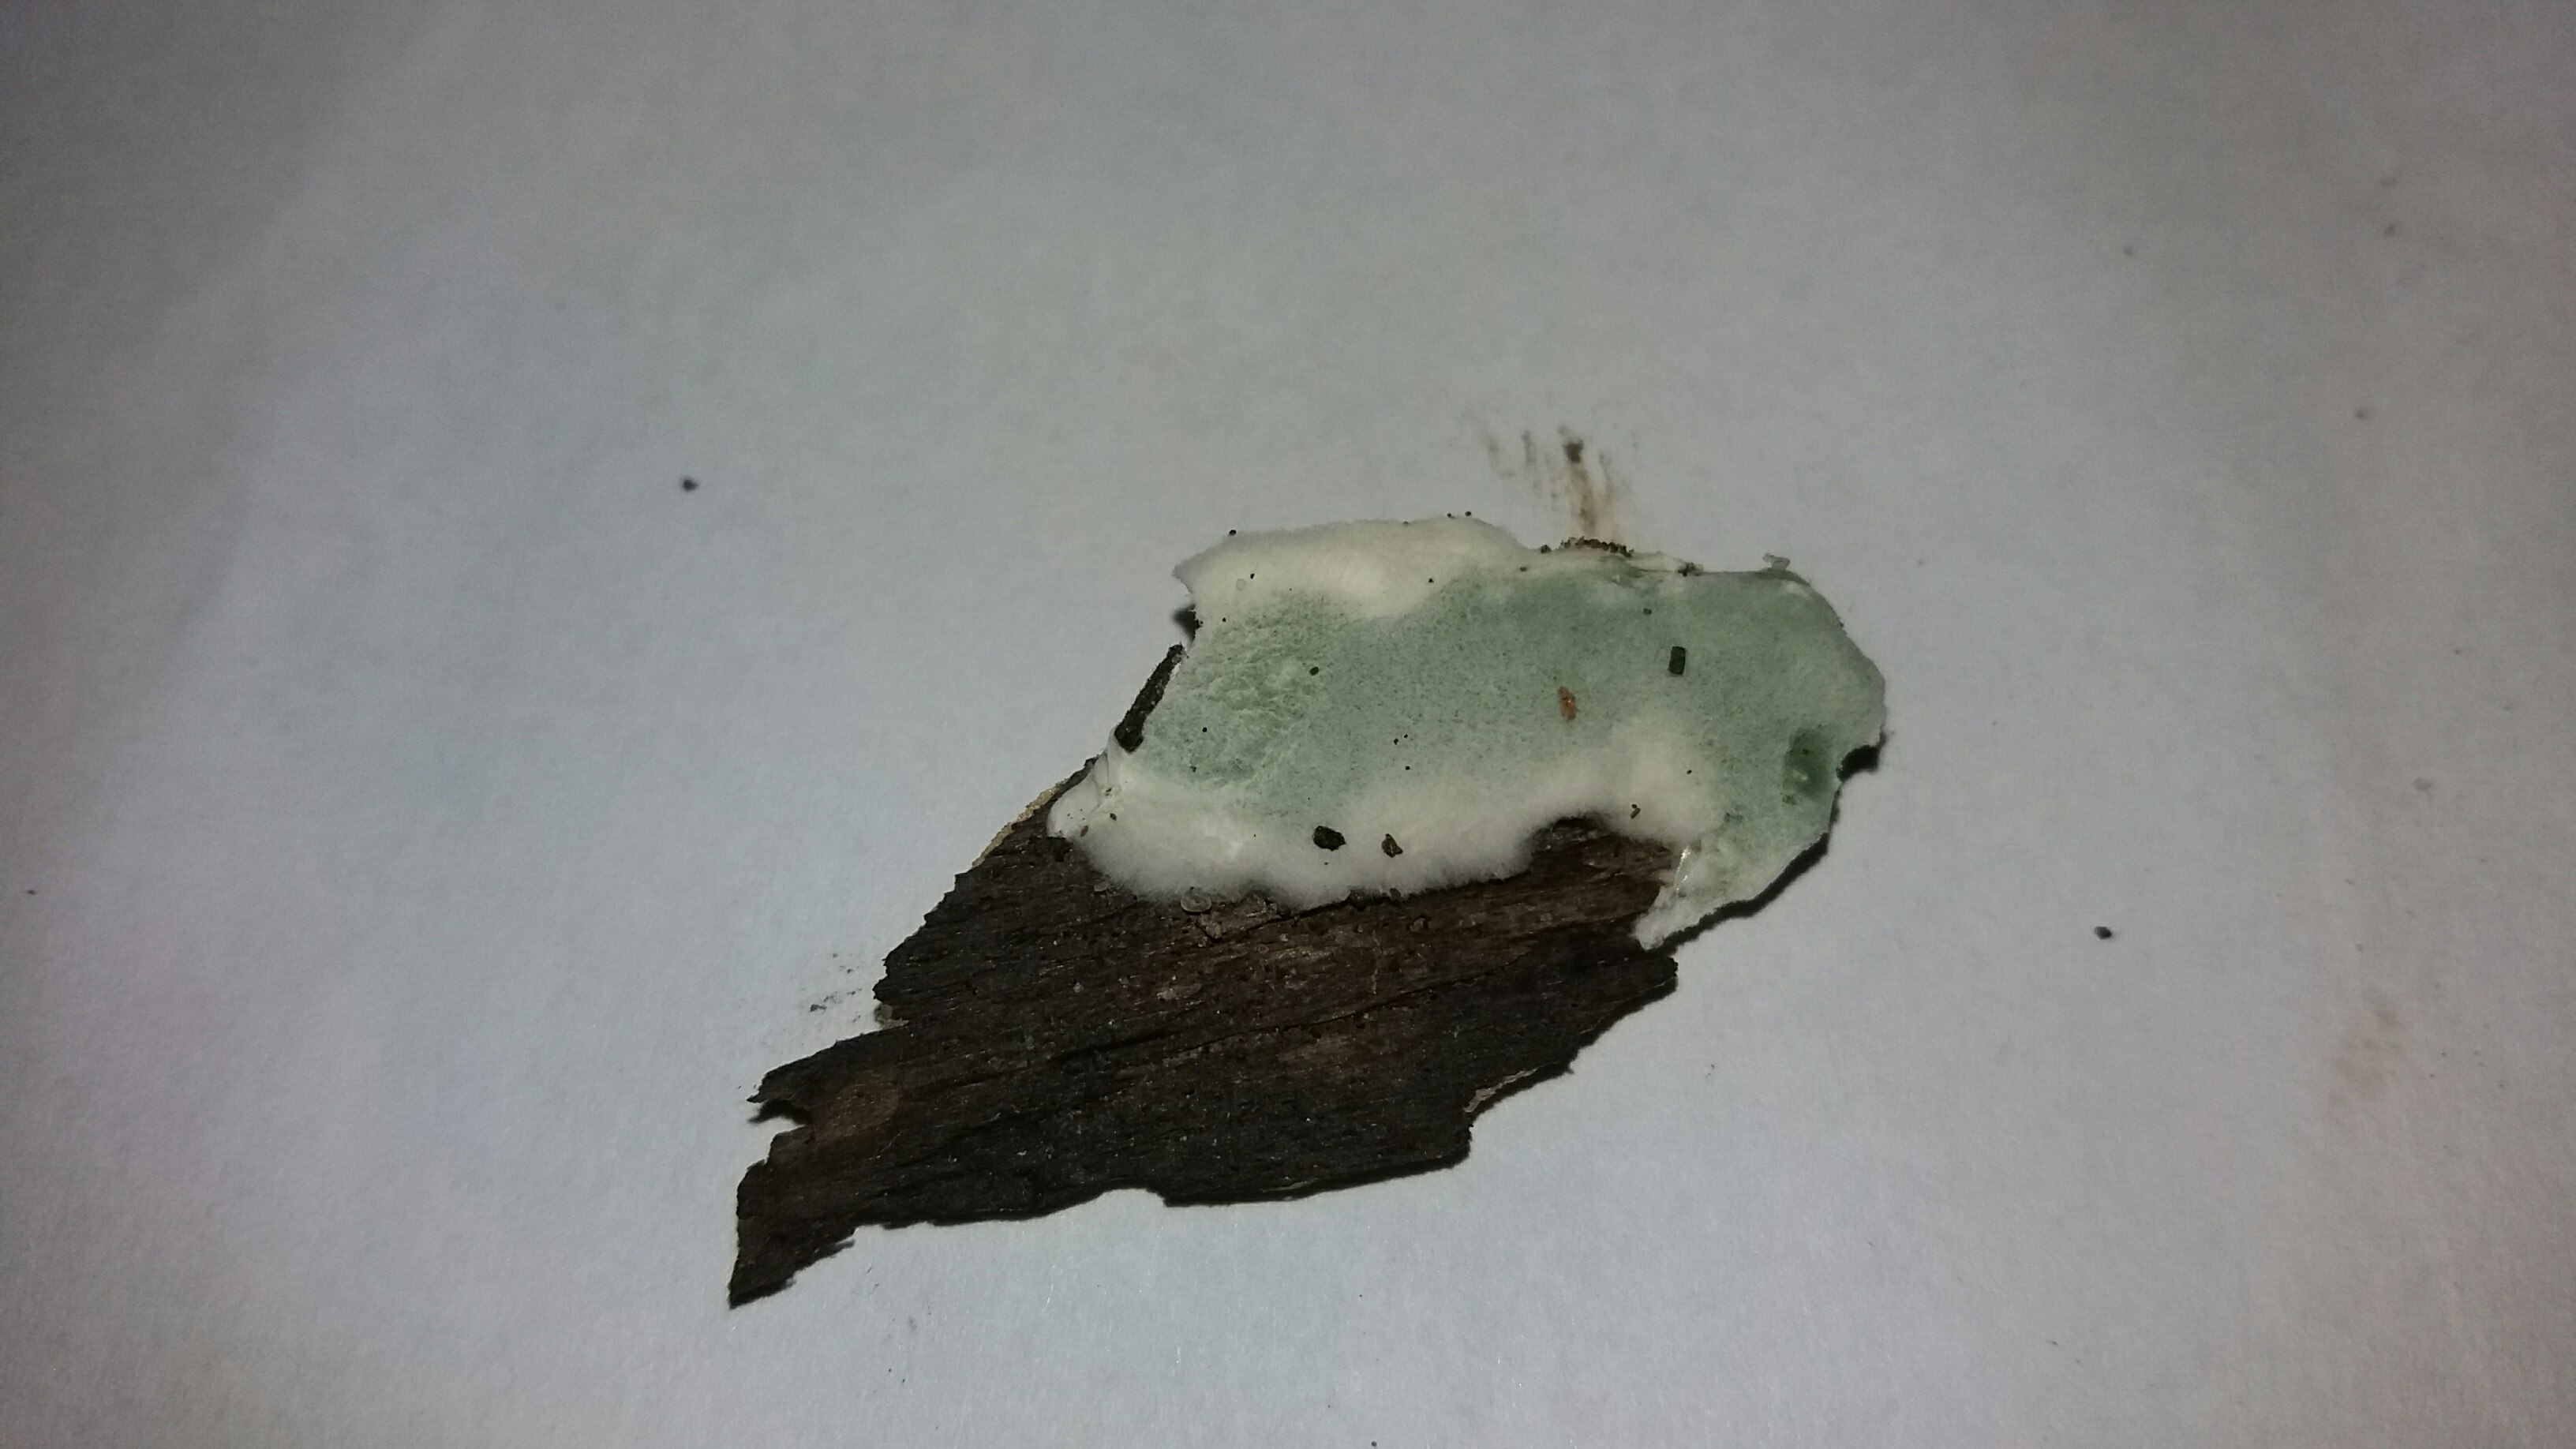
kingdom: Fungi
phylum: Ascomycota
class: Sordariomycetes
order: Hypocreales
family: Hypocreaceae
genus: Trichoderma
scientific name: Trichoderma
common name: kødkerne
